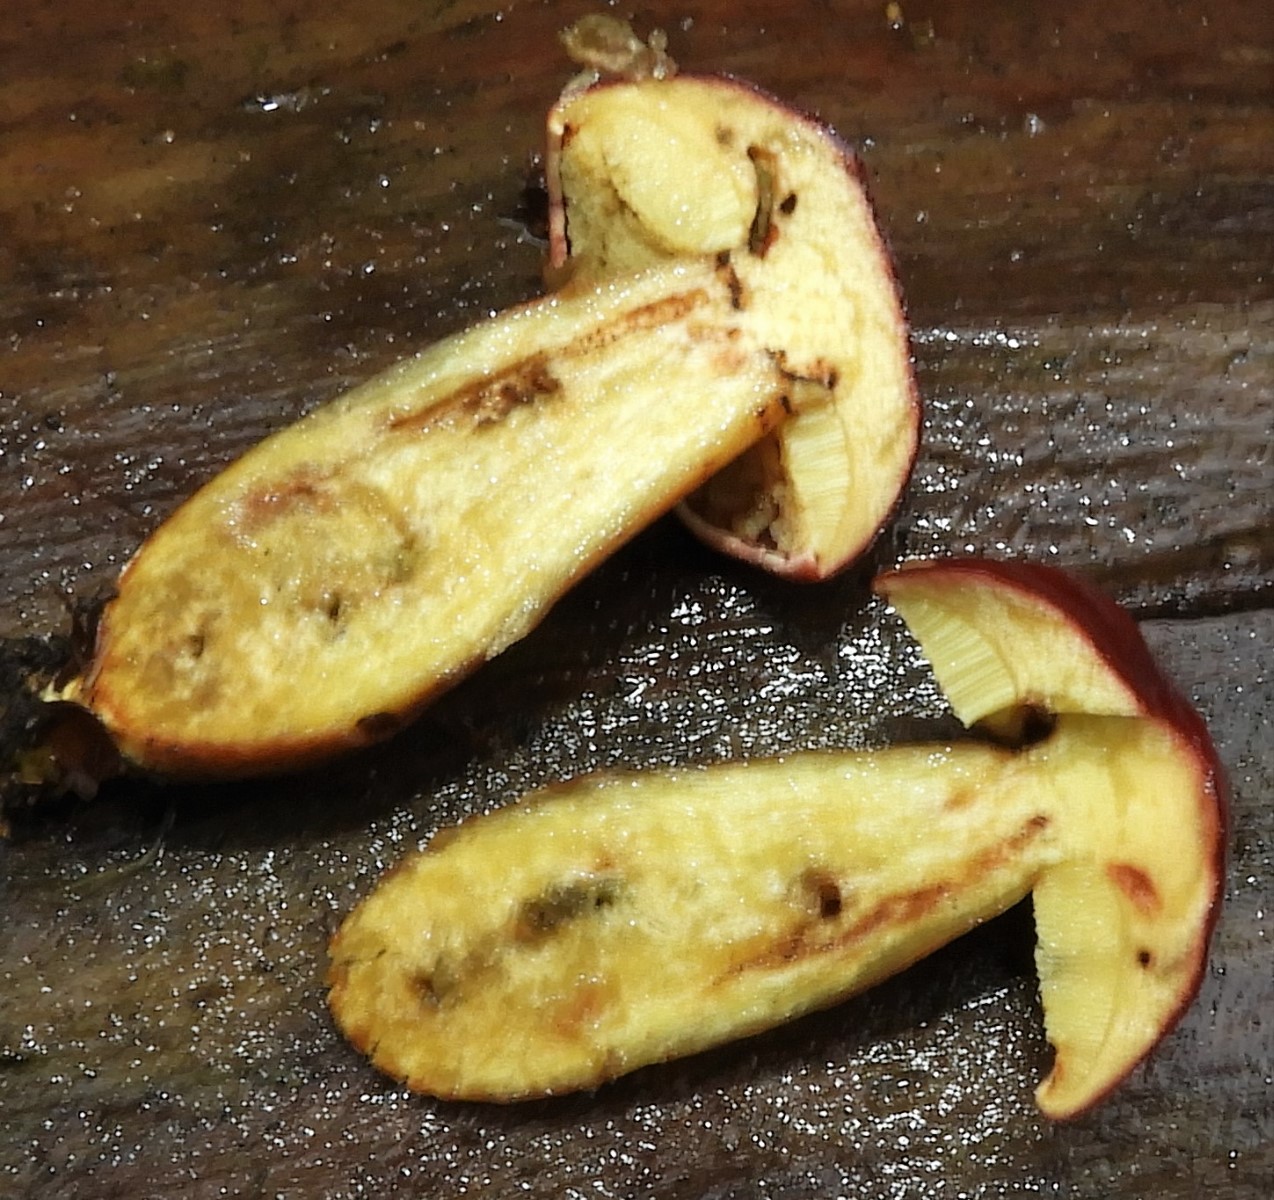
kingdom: Fungi
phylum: Basidiomycota
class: Agaricomycetes
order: Boletales
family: Boletaceae
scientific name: Boletaceae
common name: rørhatfamilien
